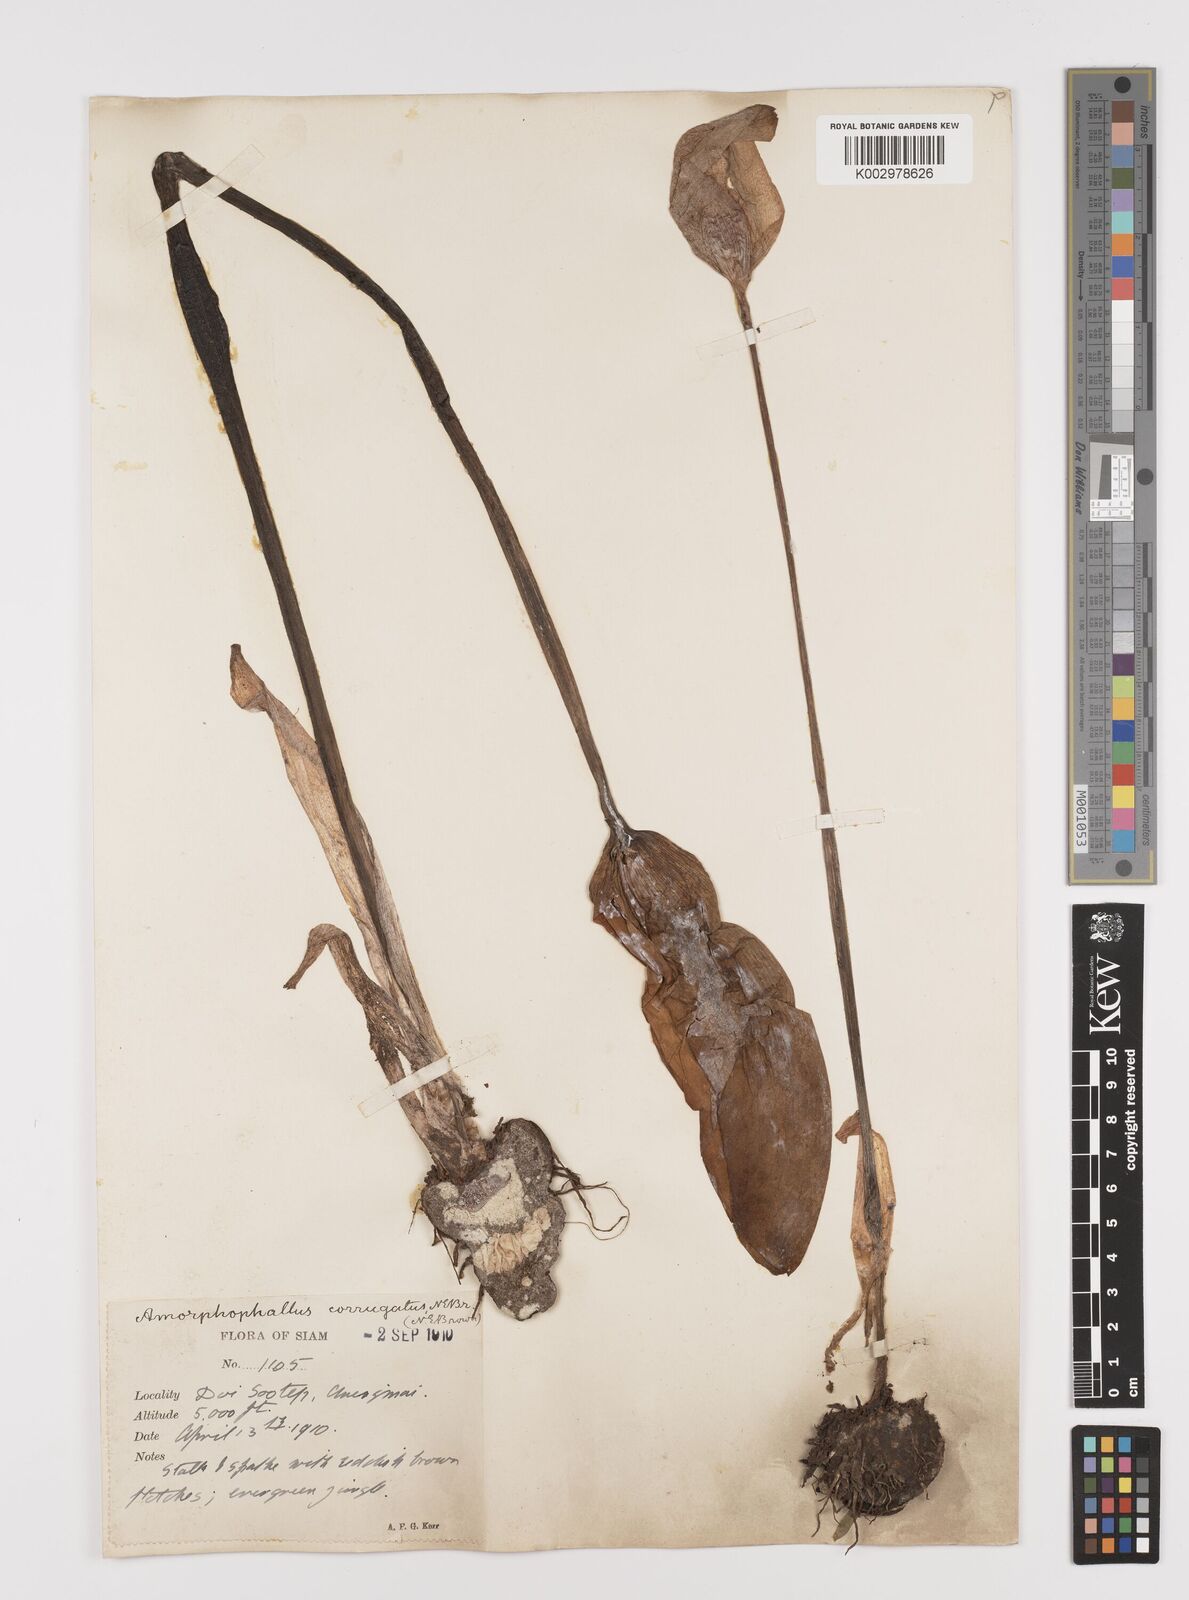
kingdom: Plantae
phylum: Tracheophyta
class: Liliopsida
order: Alismatales
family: Araceae
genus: Amorphophallus
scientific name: Amorphophallus corrugatus
